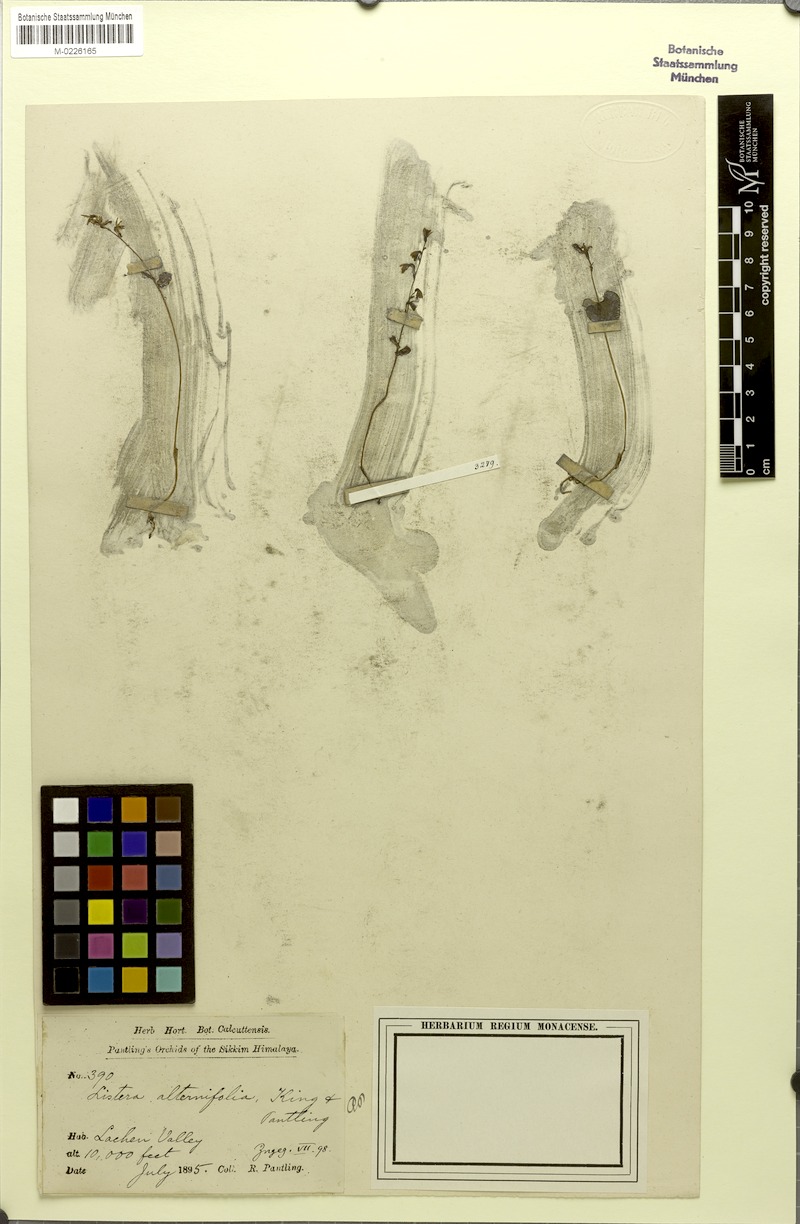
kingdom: Plantae
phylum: Tracheophyta
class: Liliopsida
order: Asparagales
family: Orchidaceae
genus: Neottia
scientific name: Neottia alternifolia
